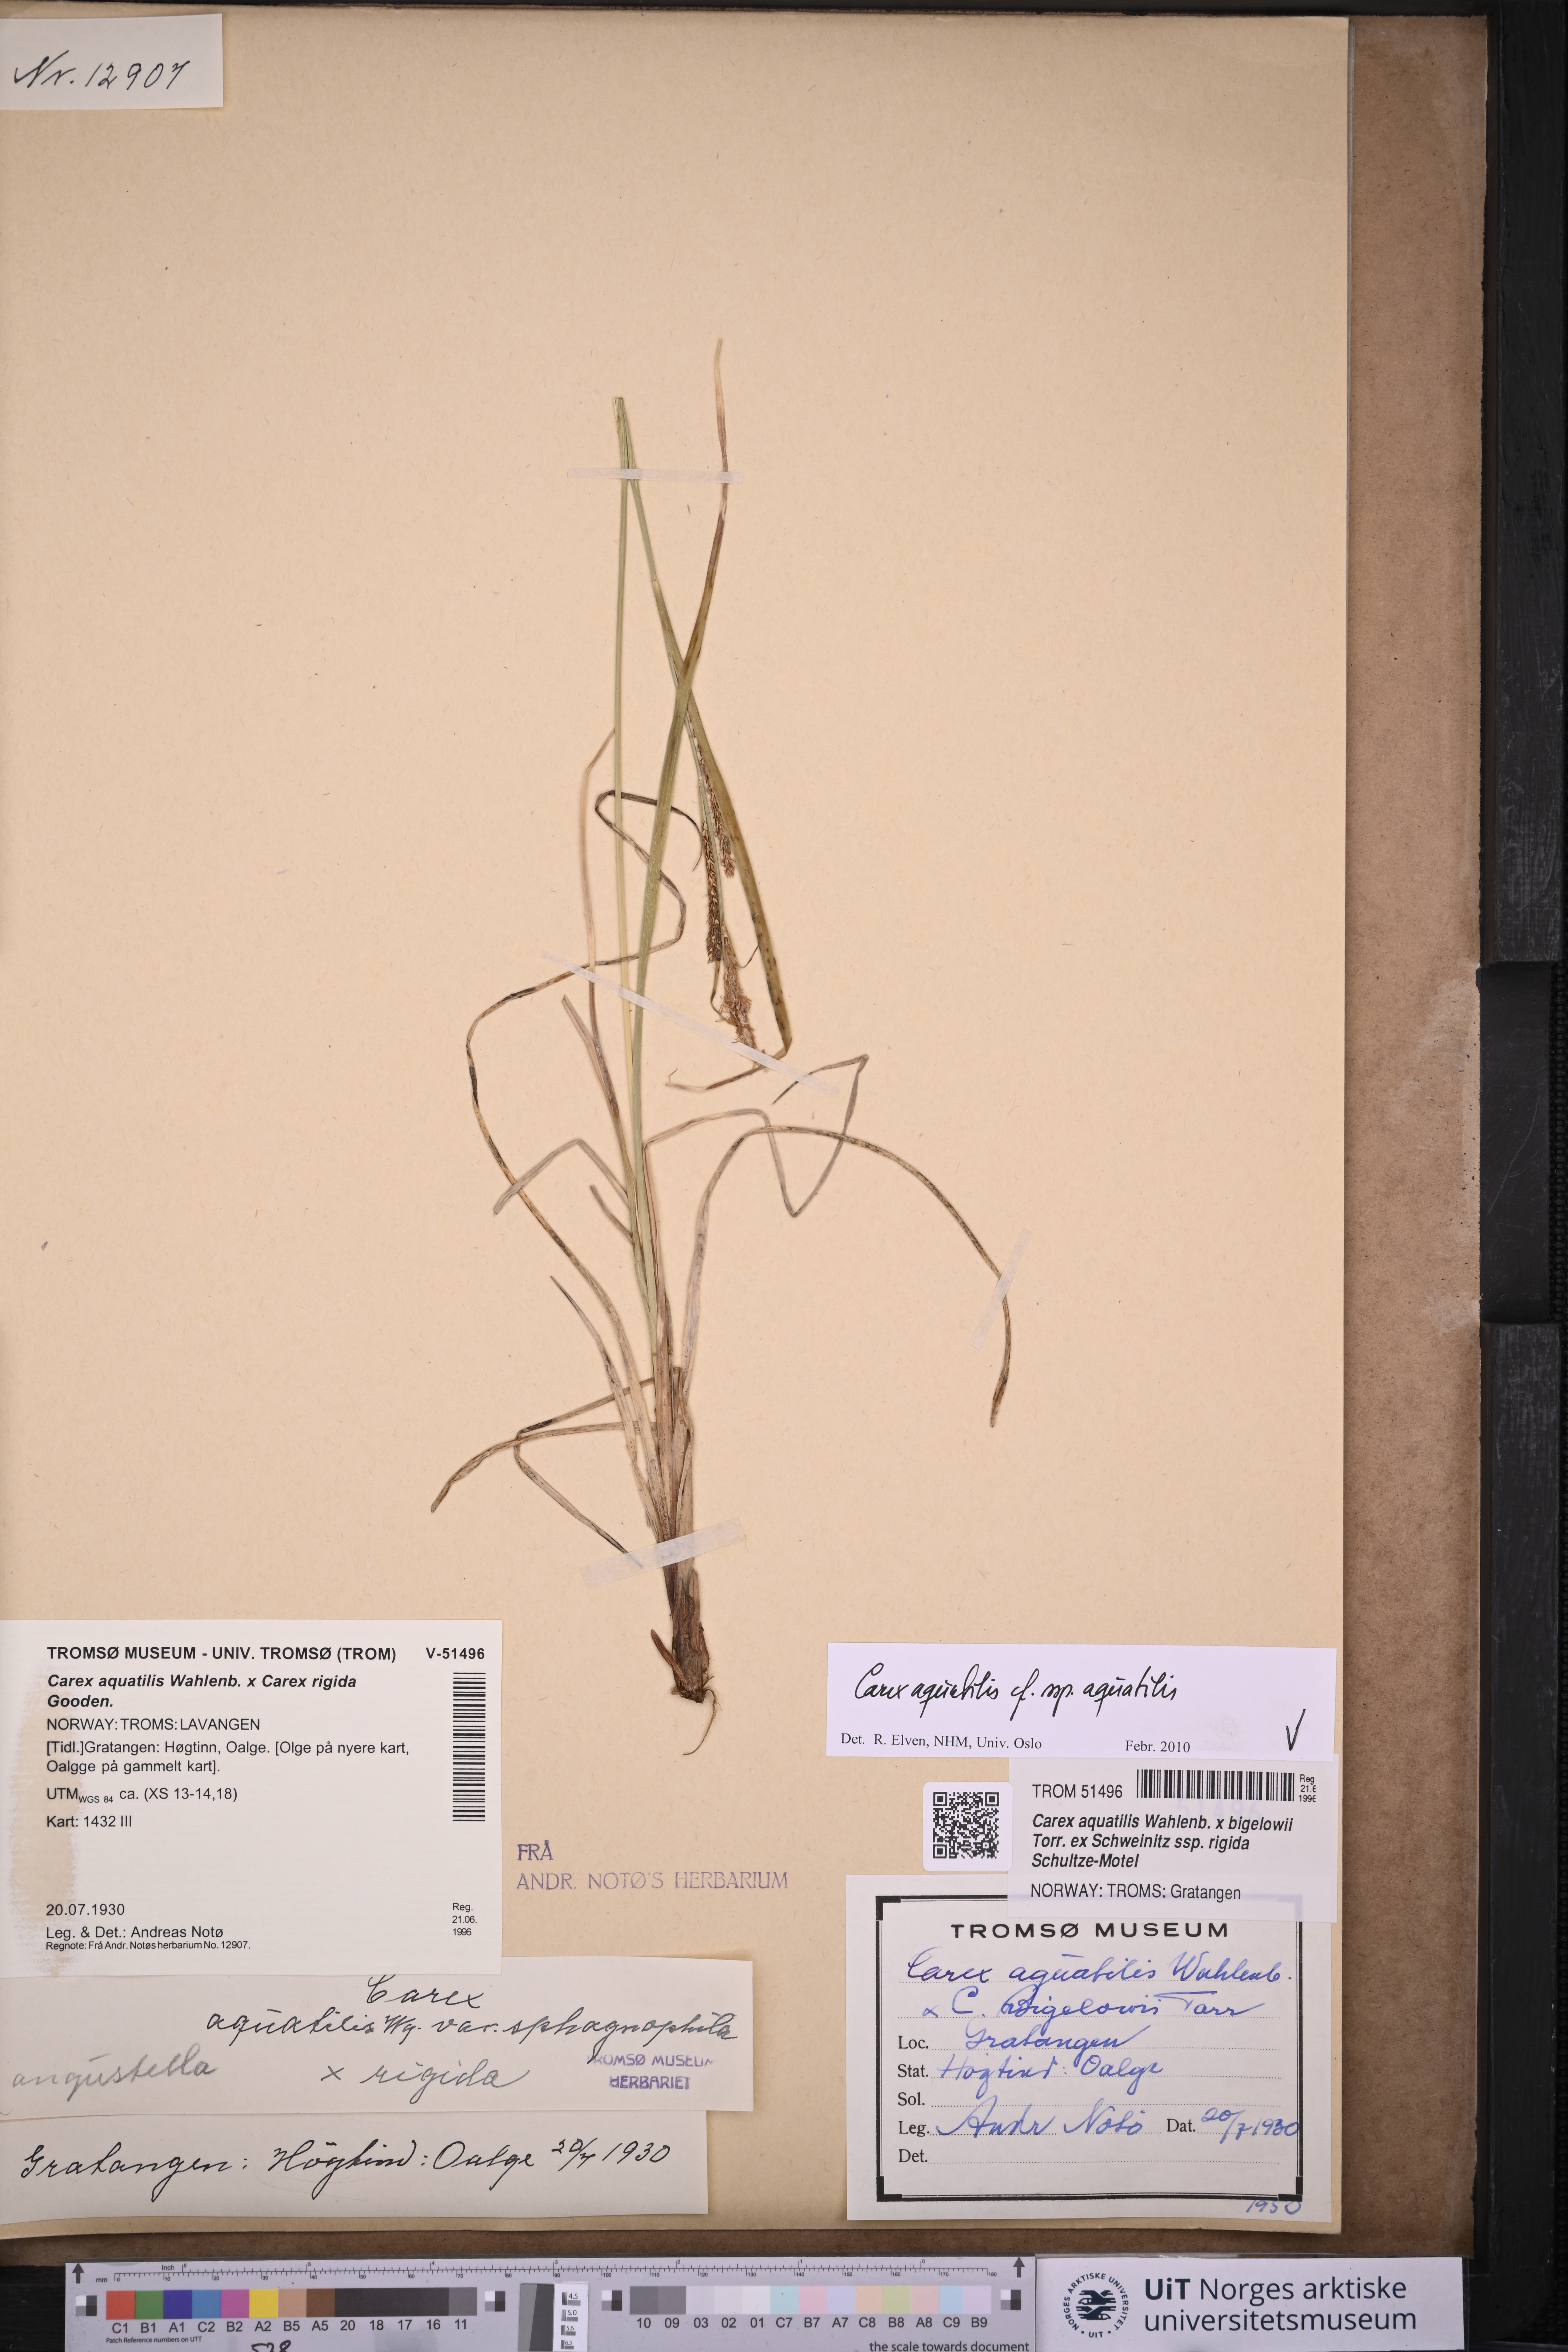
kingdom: Plantae
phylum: Tracheophyta
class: Liliopsida
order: Poales
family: Cyperaceae
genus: Carex
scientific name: Carex aquatilis
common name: Water sedge
